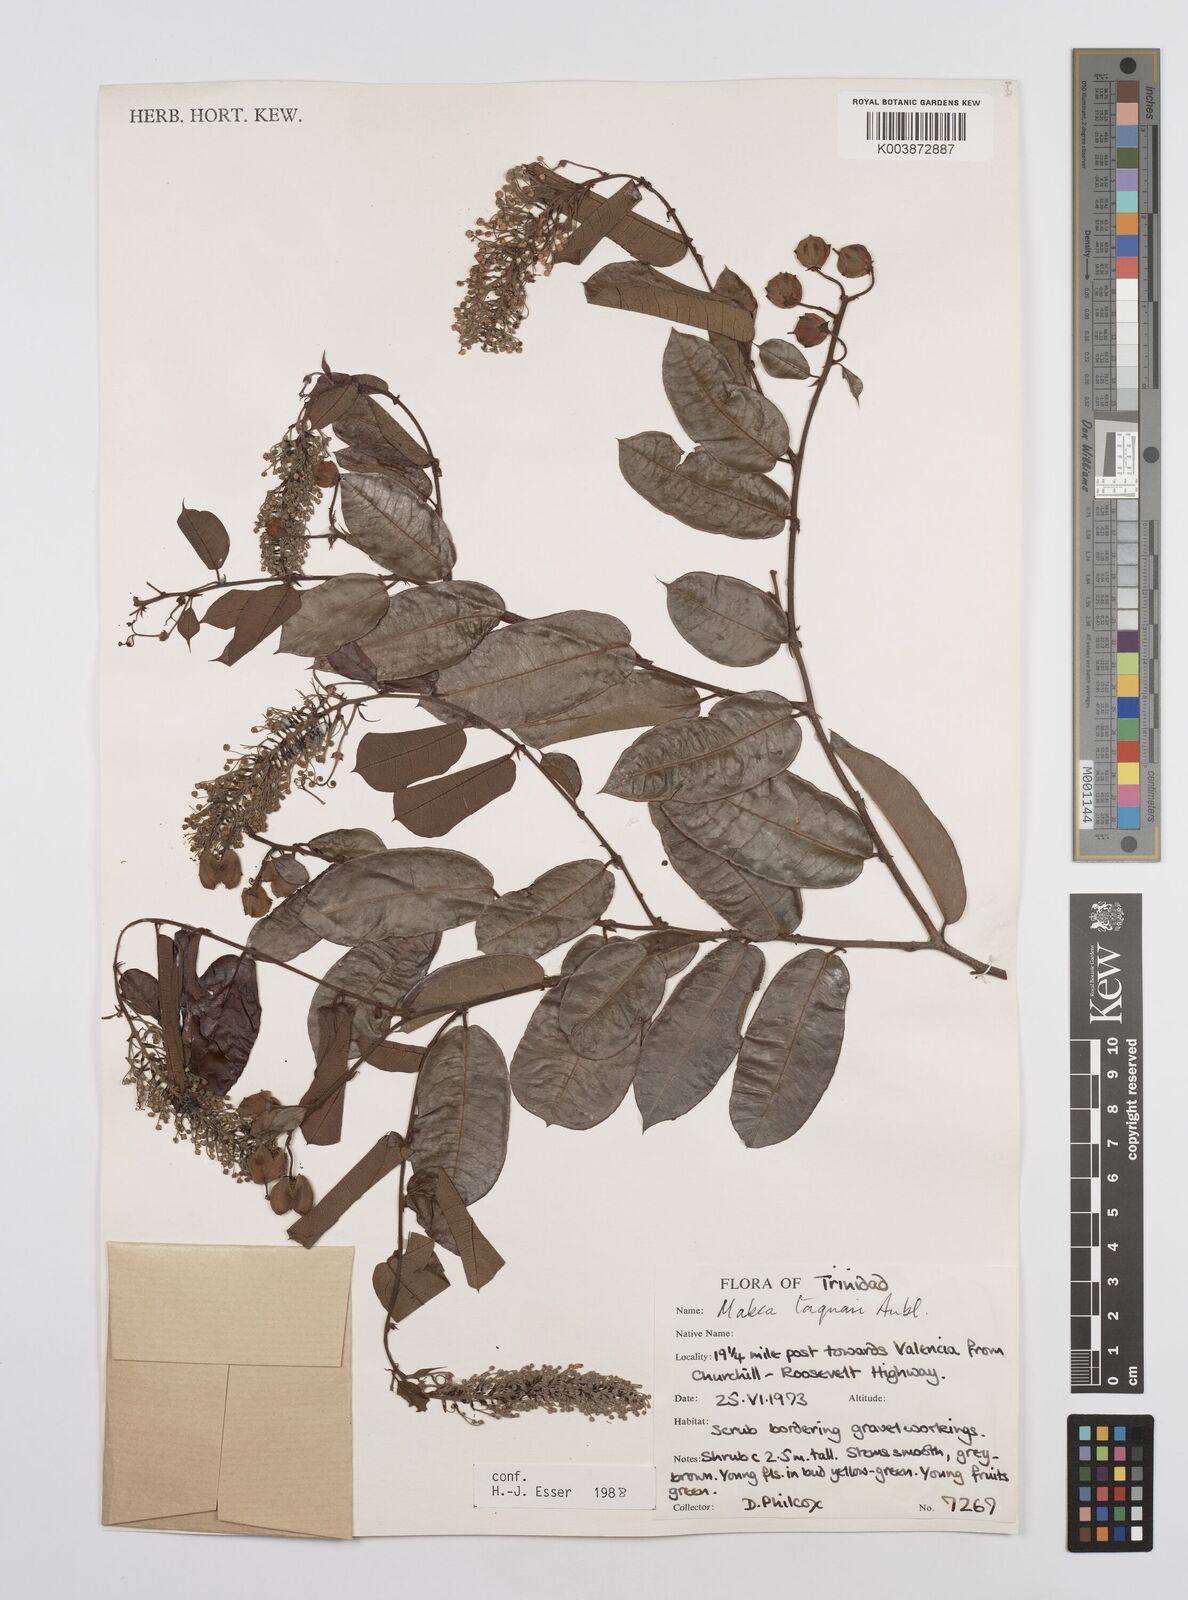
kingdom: Plantae
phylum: Tracheophyta
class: Magnoliopsida
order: Malpighiales
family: Euphorbiaceae
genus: Mabea
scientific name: Mabea taquari
